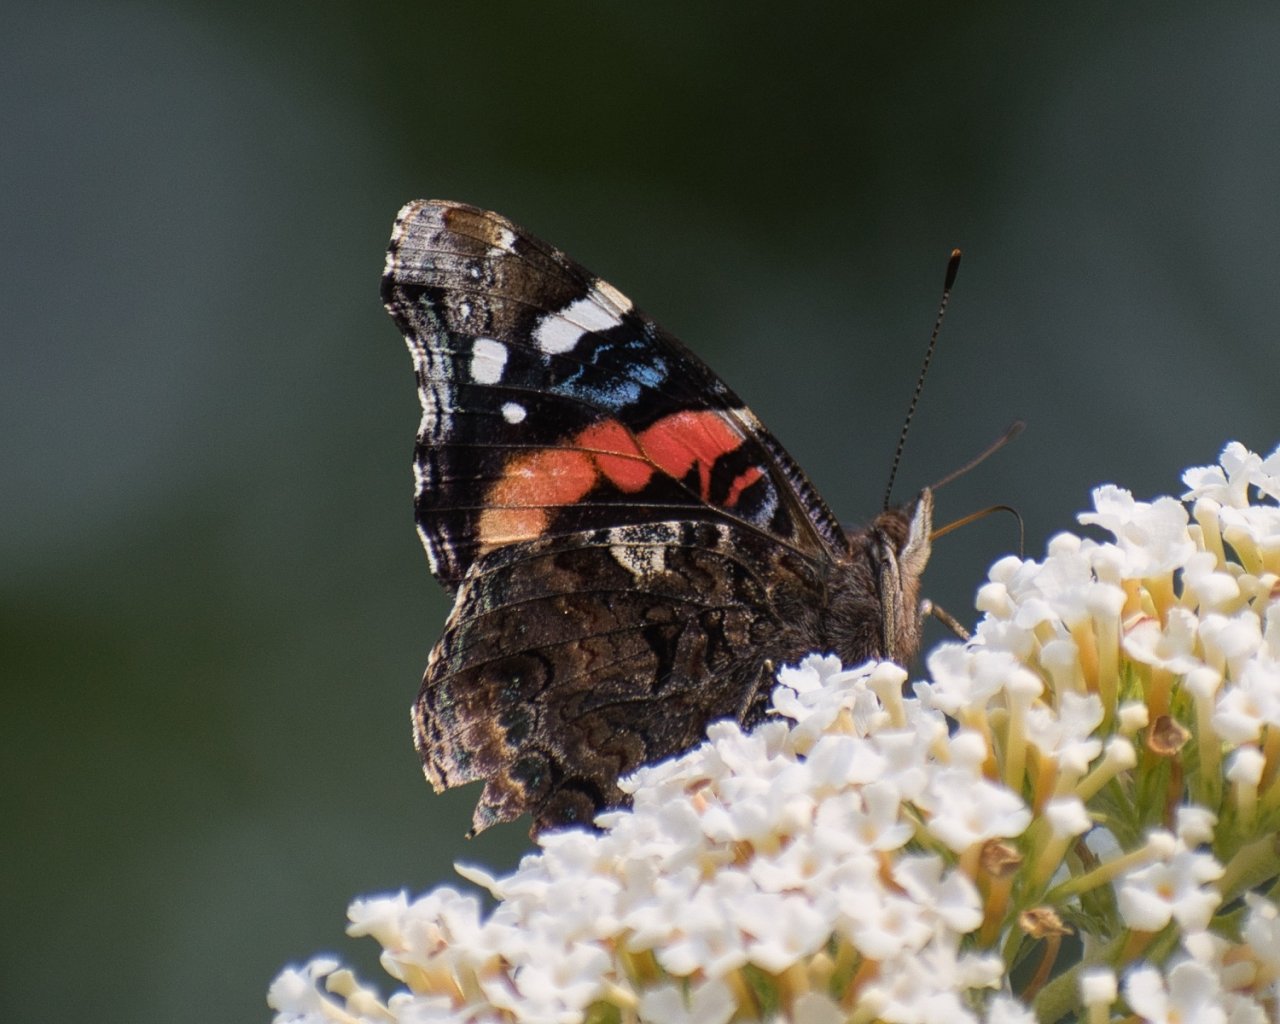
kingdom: Animalia
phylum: Arthropoda
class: Insecta
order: Lepidoptera
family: Nymphalidae
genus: Vanessa
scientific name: Vanessa atalanta
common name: Red Admiral
